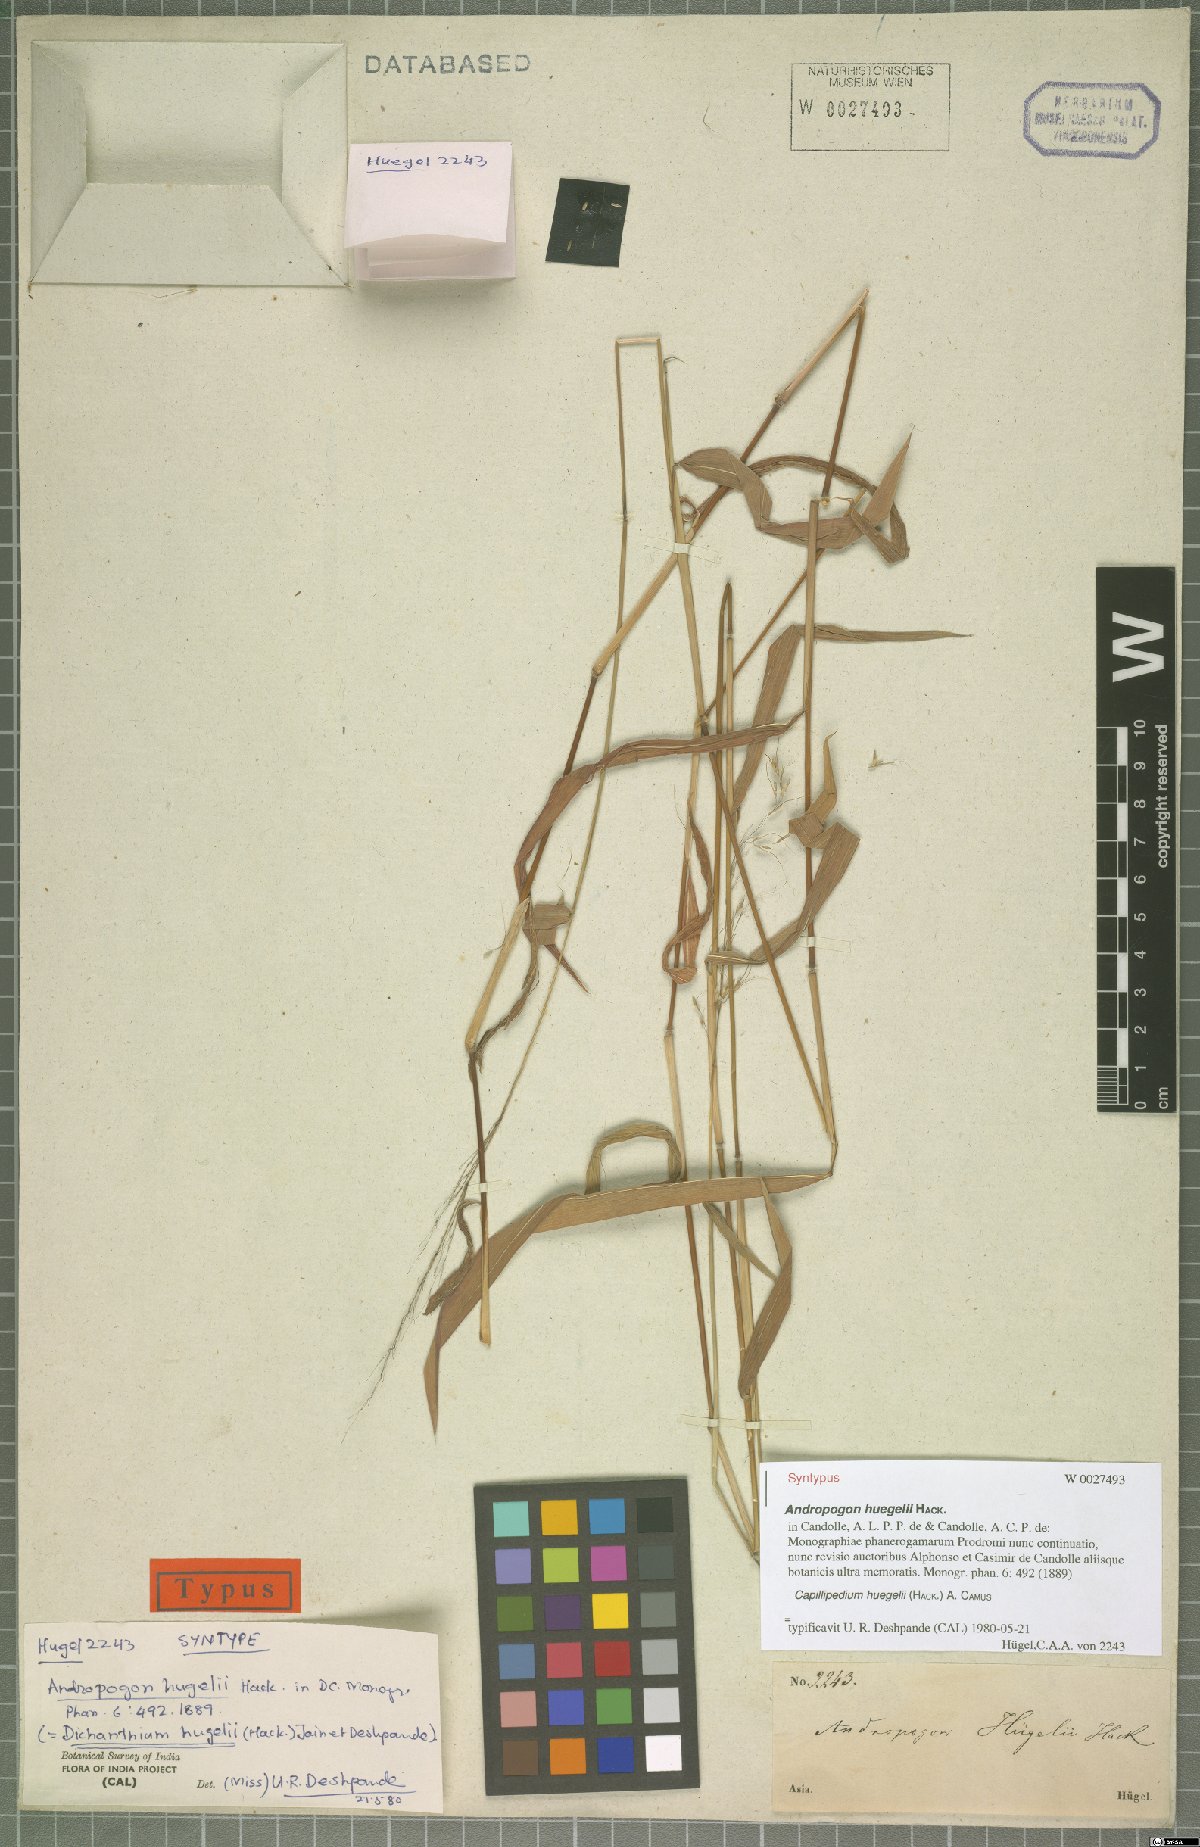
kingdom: Plantae
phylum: Tracheophyta
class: Liliopsida
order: Poales
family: Poaceae
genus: Capillipedium
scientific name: Capillipedium huegelii
